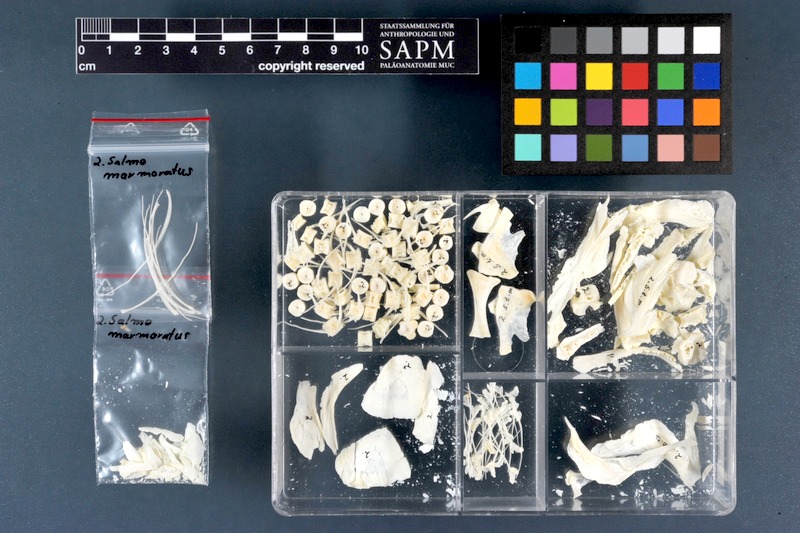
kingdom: Animalia
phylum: Chordata
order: Salmoniformes
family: Salmonidae
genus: Salmo
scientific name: Salmo marmoratus
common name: Marble trout
